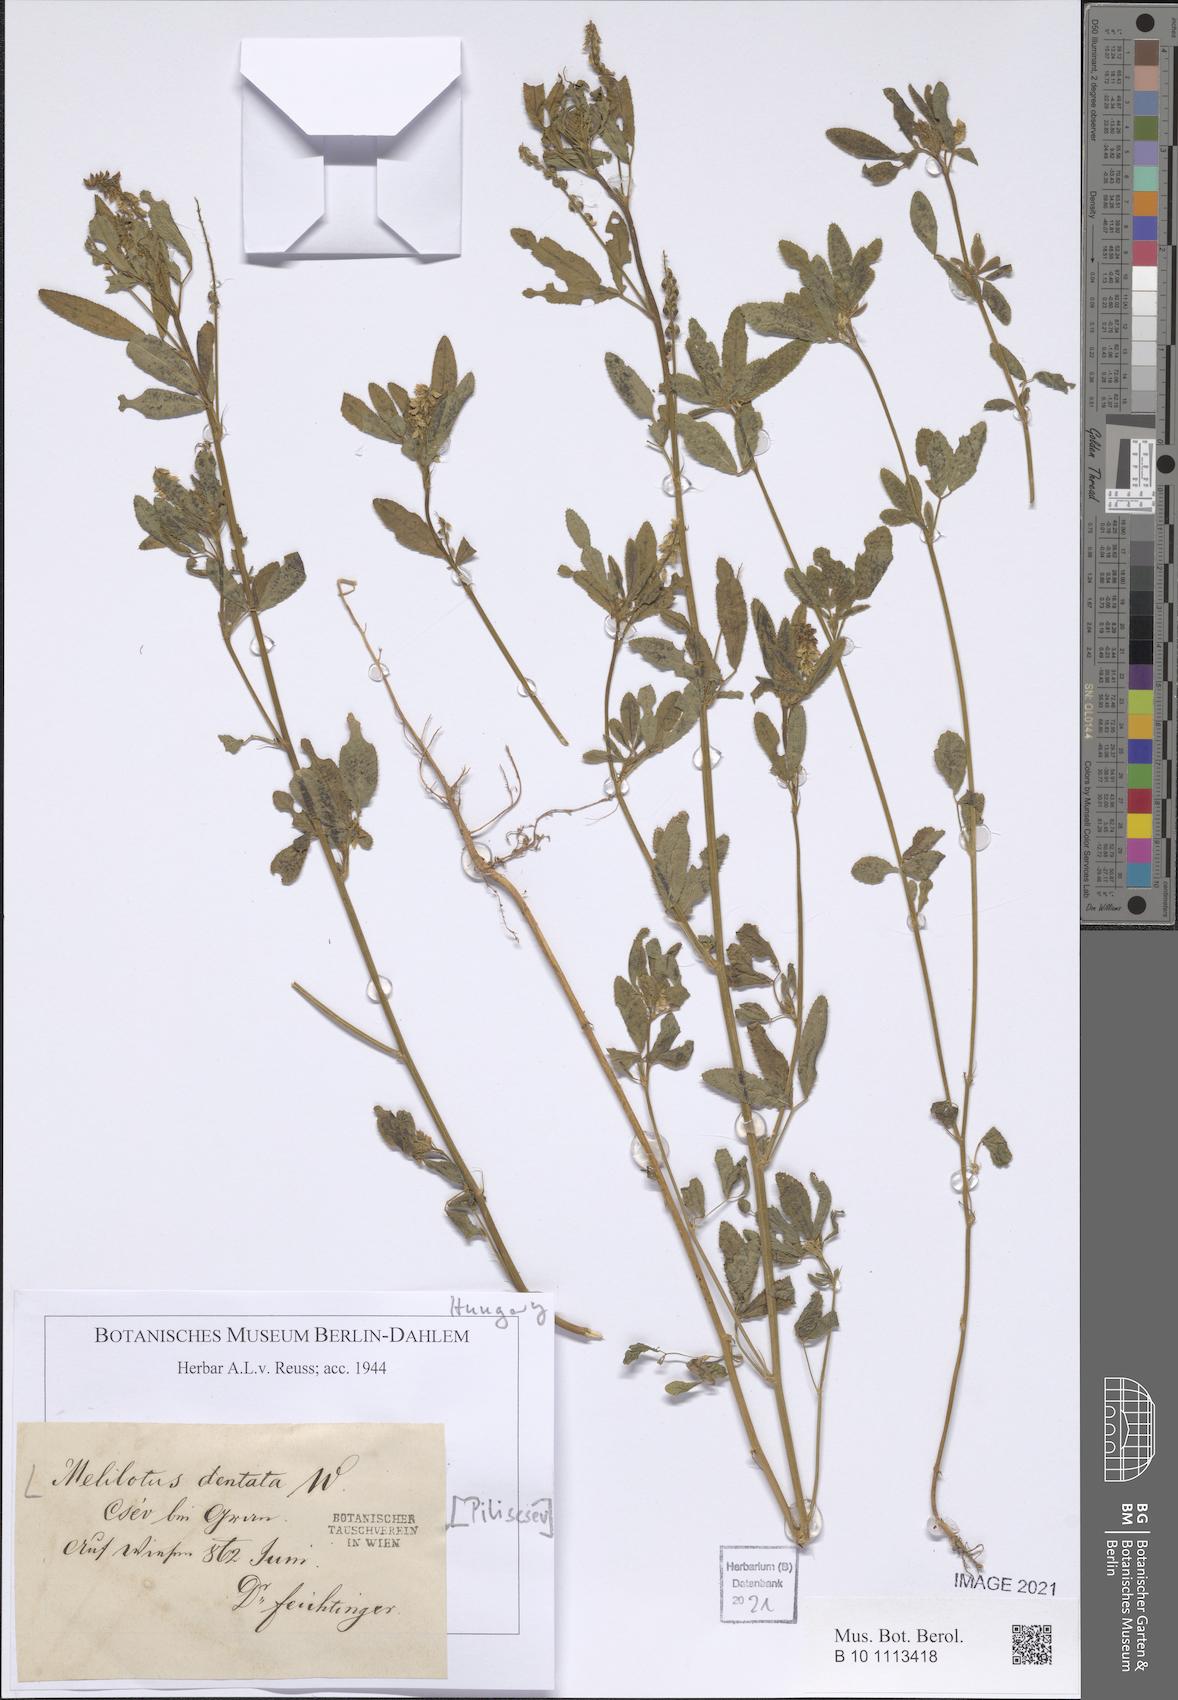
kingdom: Plantae
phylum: Tracheophyta
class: Magnoliopsida
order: Fabales
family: Fabaceae
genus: Melilotus
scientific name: Melilotus dentatus
